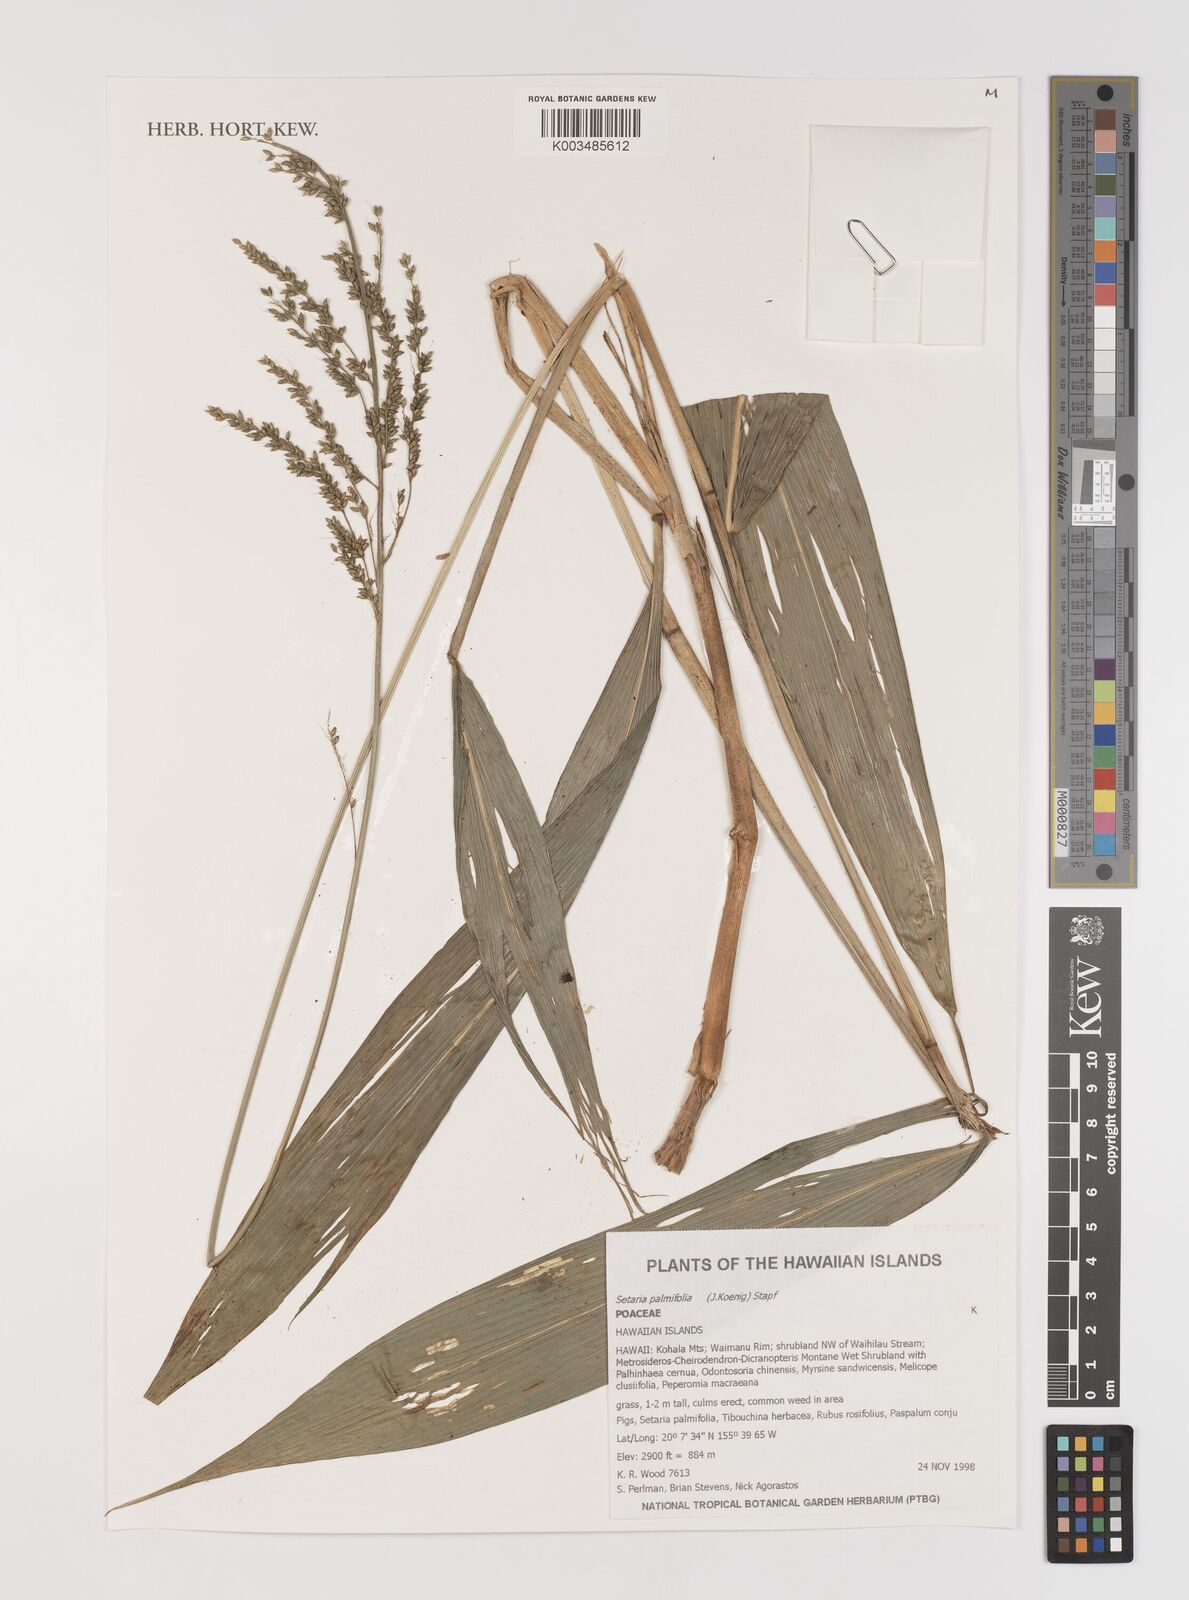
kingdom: Plantae
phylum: Tracheophyta
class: Liliopsida
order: Poales
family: Poaceae
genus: Setaria
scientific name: Setaria palmifolia
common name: Broadleaved bristlegrass
